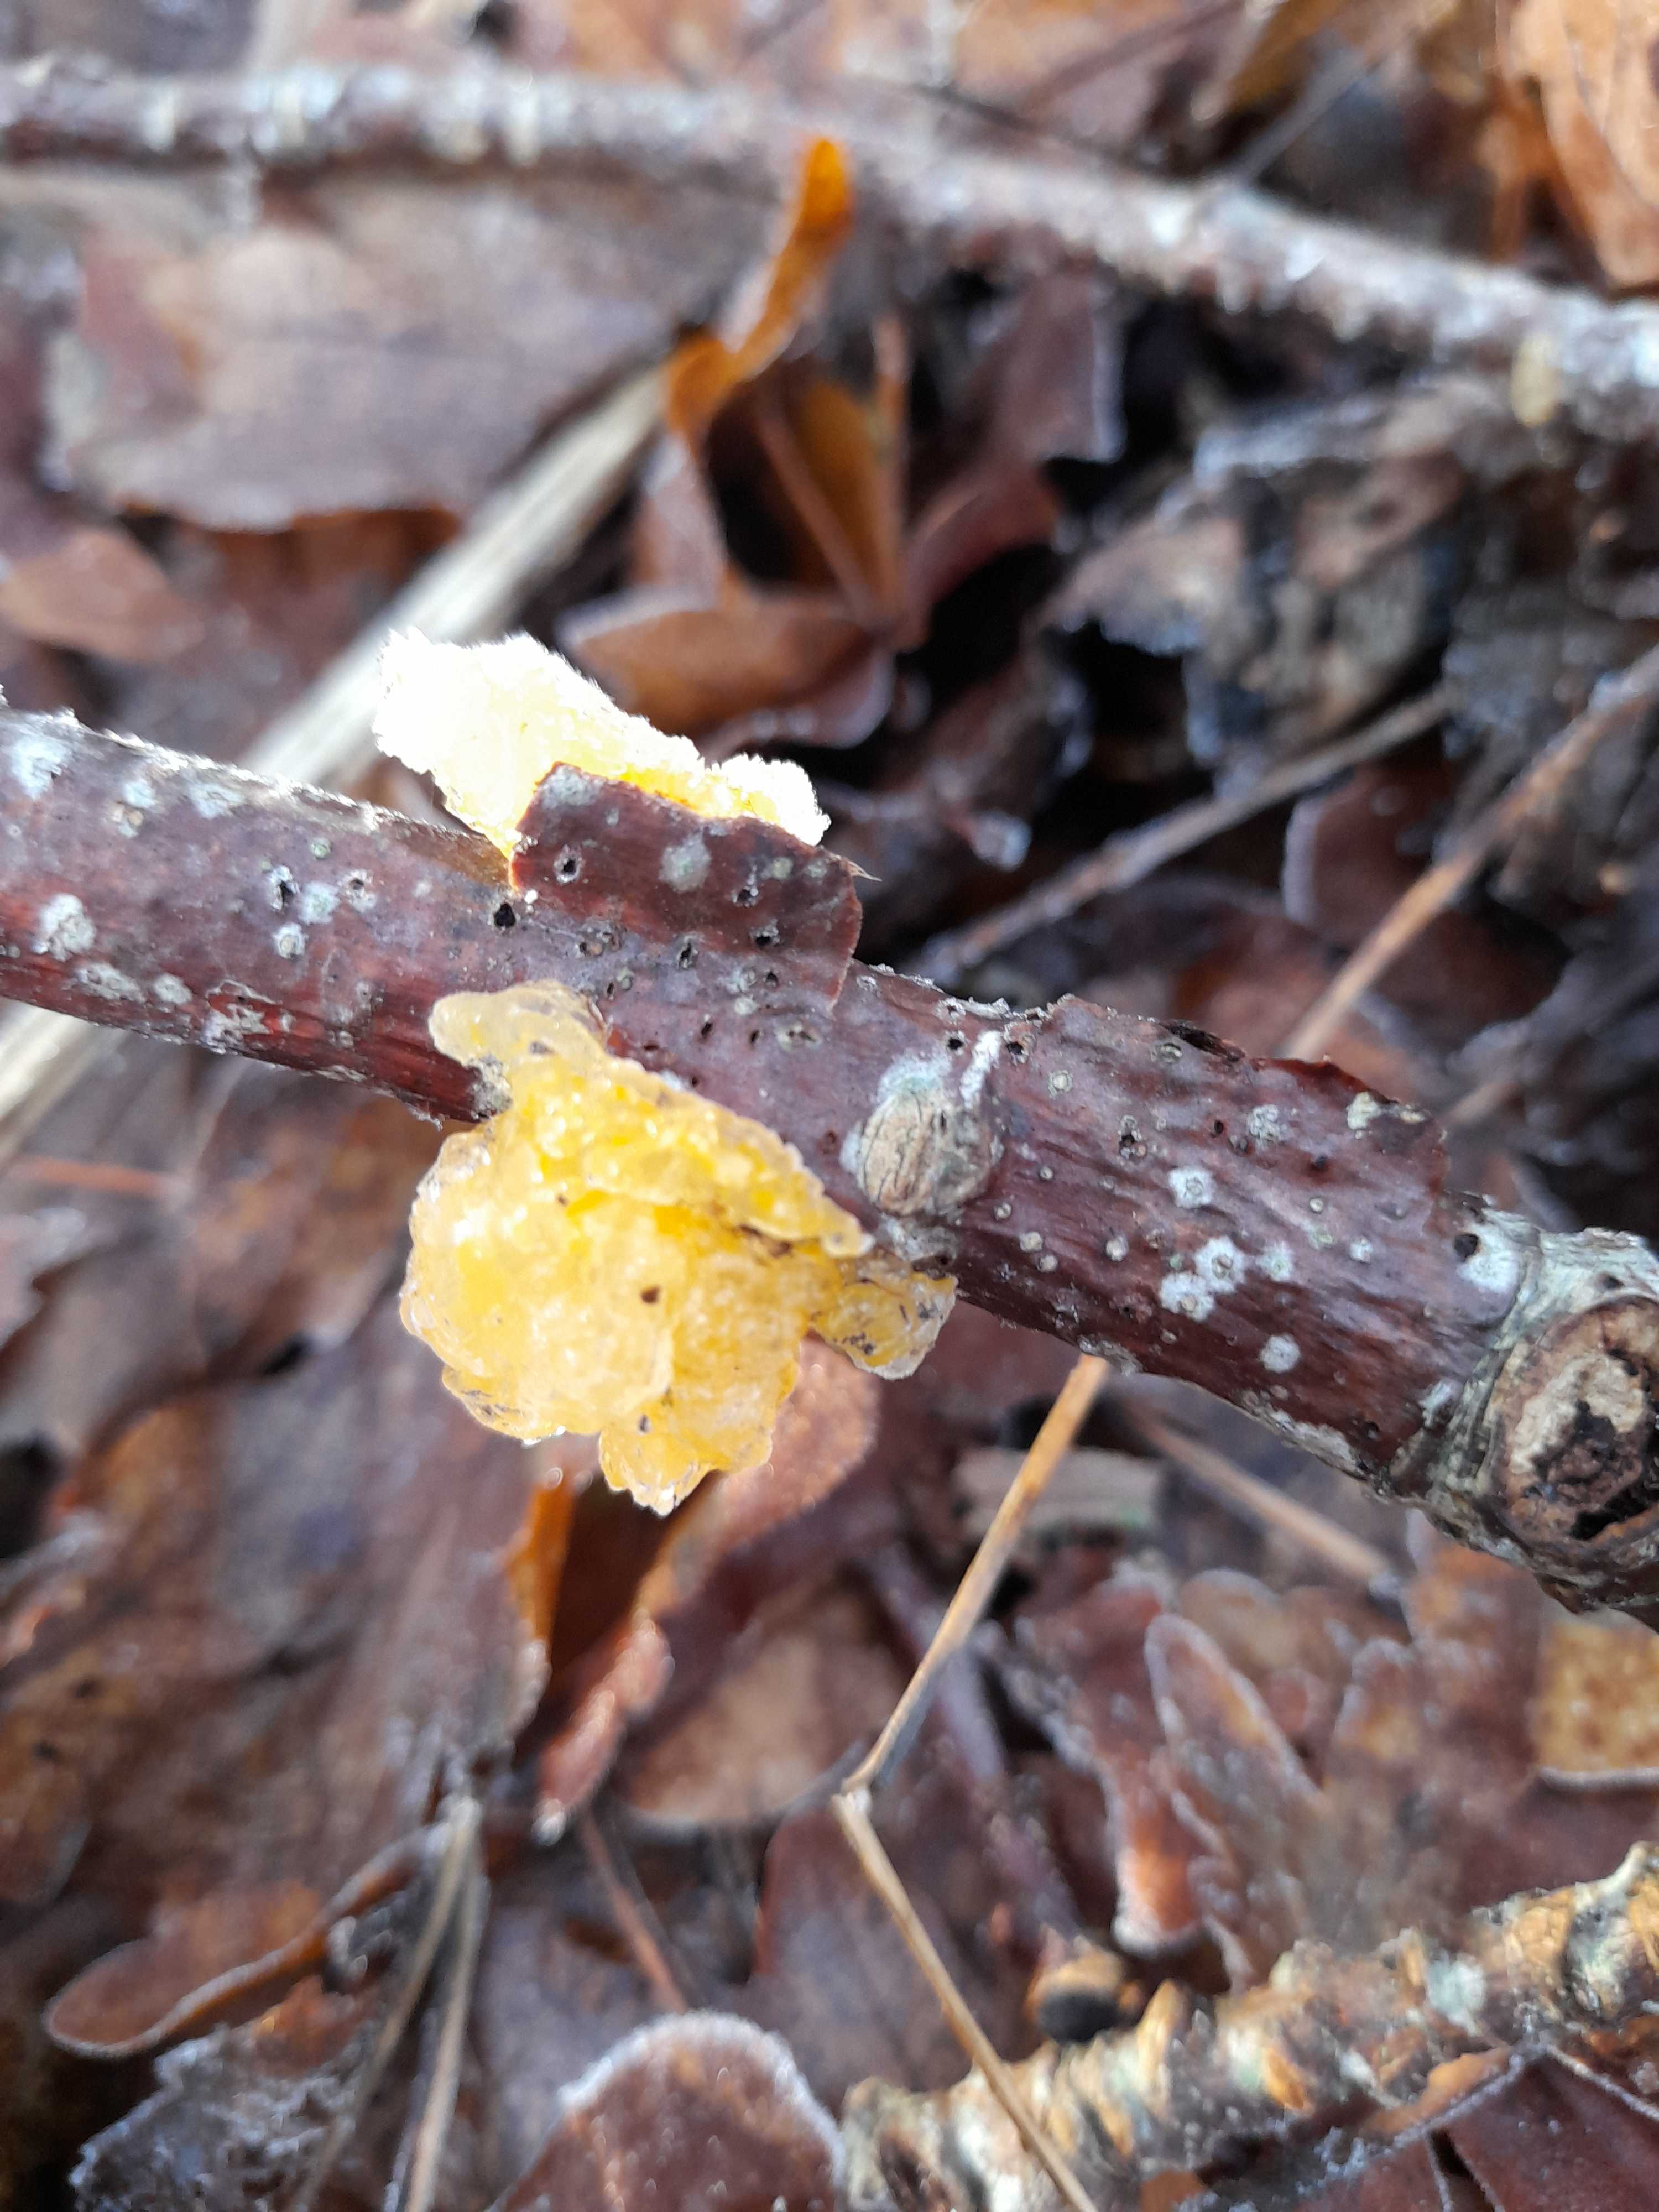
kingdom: Fungi
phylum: Basidiomycota
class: Tremellomycetes
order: Tremellales
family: Tremellaceae
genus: Tremella
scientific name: Tremella mesenterica
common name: gul bævresvamp
